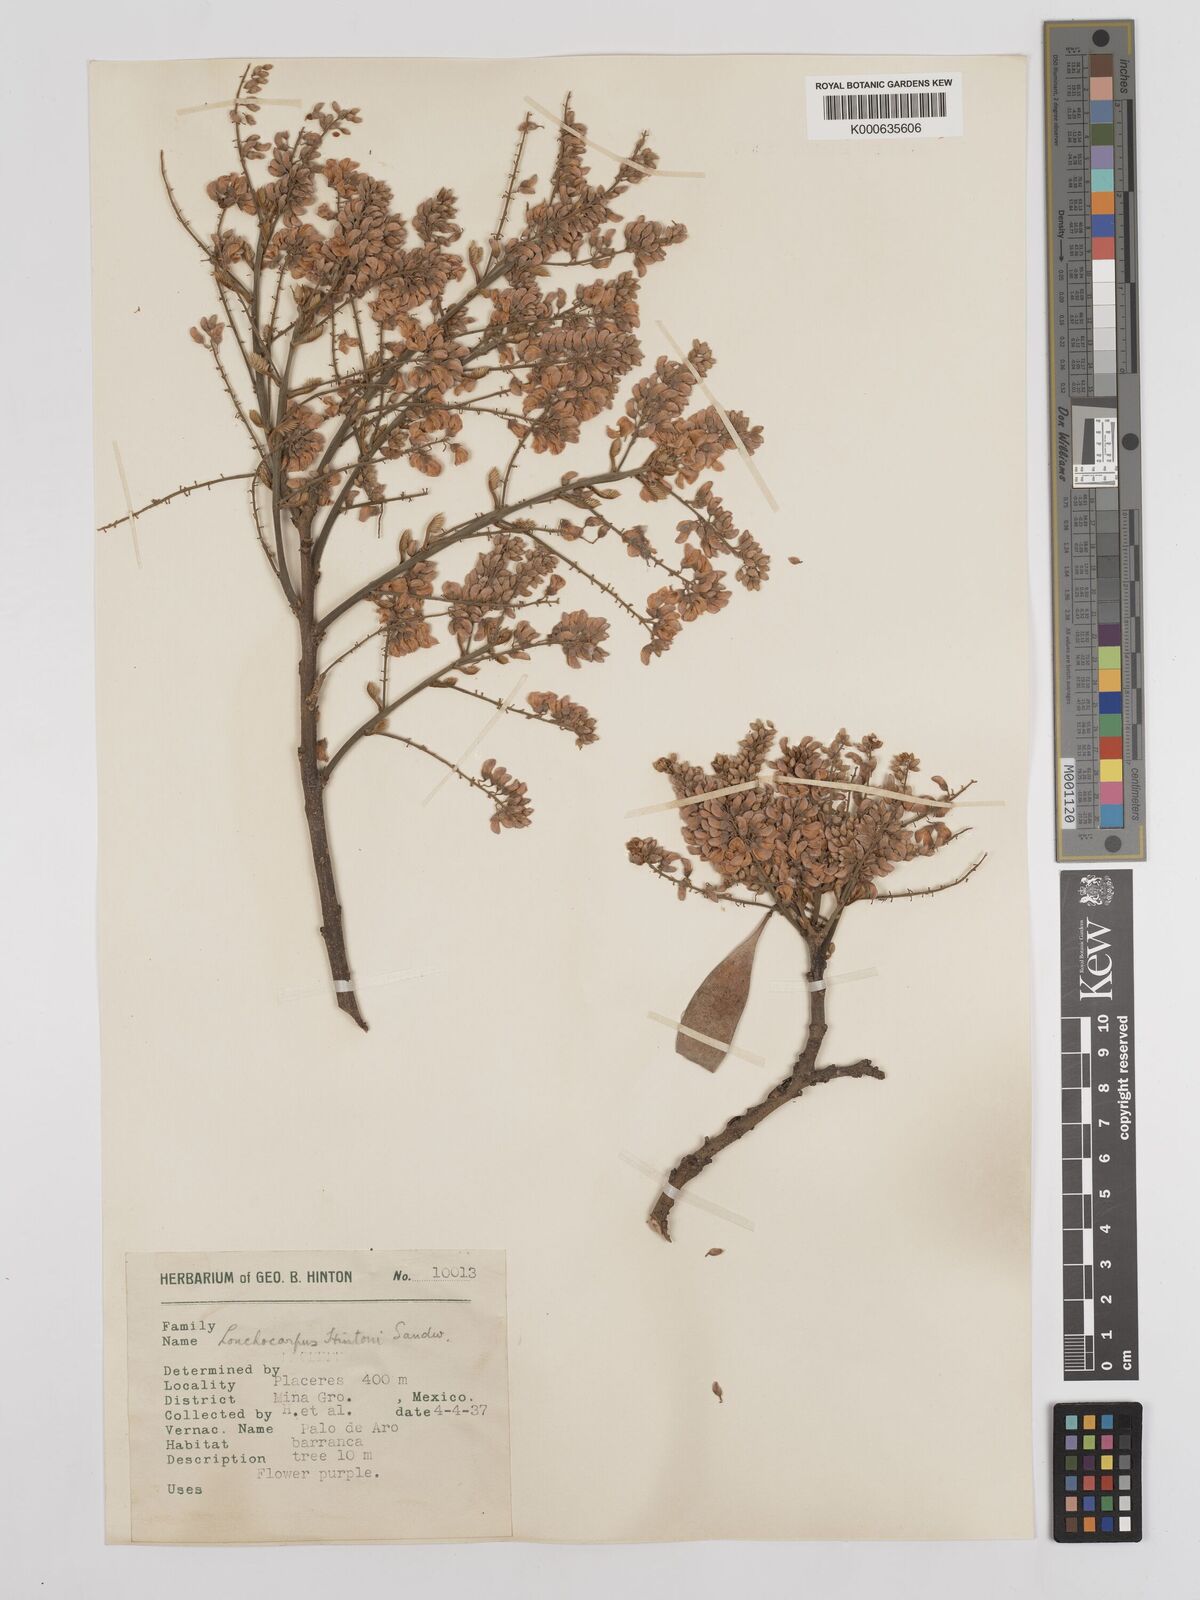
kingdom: Plantae
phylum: Tracheophyta
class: Magnoliopsida
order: Fabales
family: Fabaceae
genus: Lonchocarpus
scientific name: Lonchocarpus hintonii
